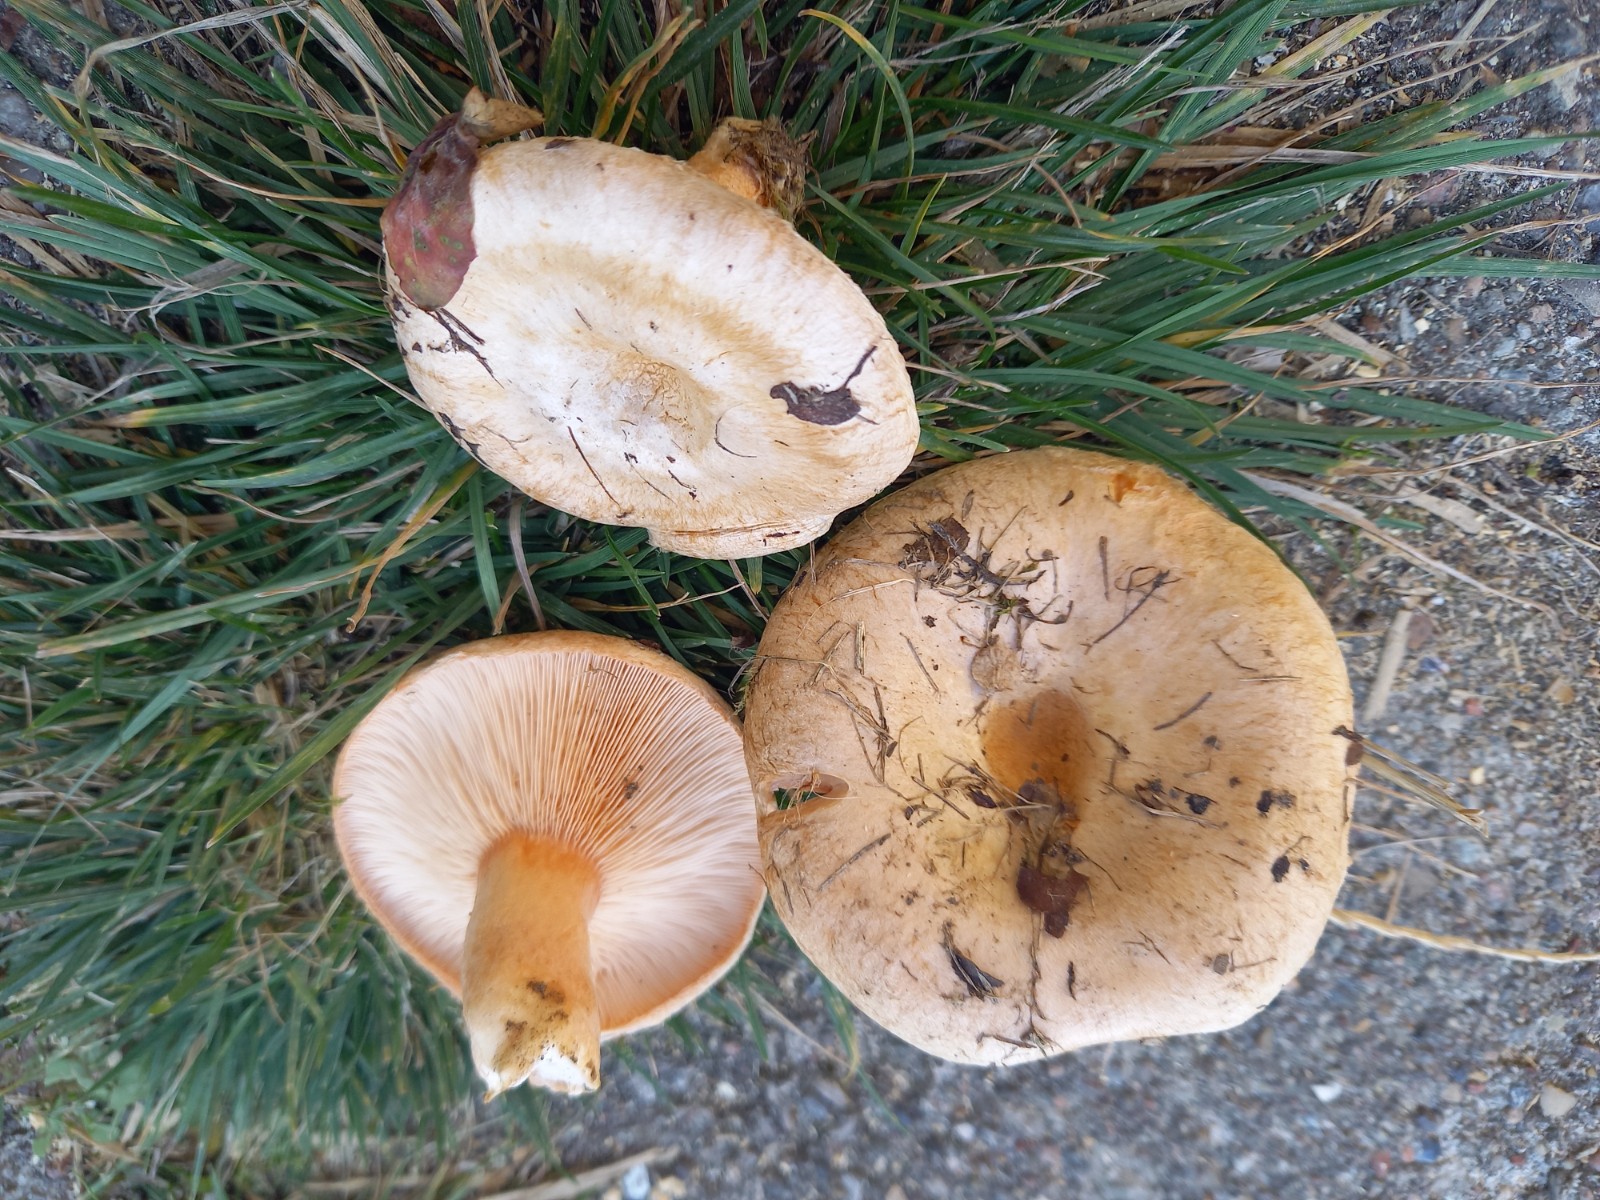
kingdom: Fungi
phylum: Basidiomycota
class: Agaricomycetes
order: Russulales
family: Russulaceae
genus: Lactarius
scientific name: Lactarius pubescens
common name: dunet mælkehat
